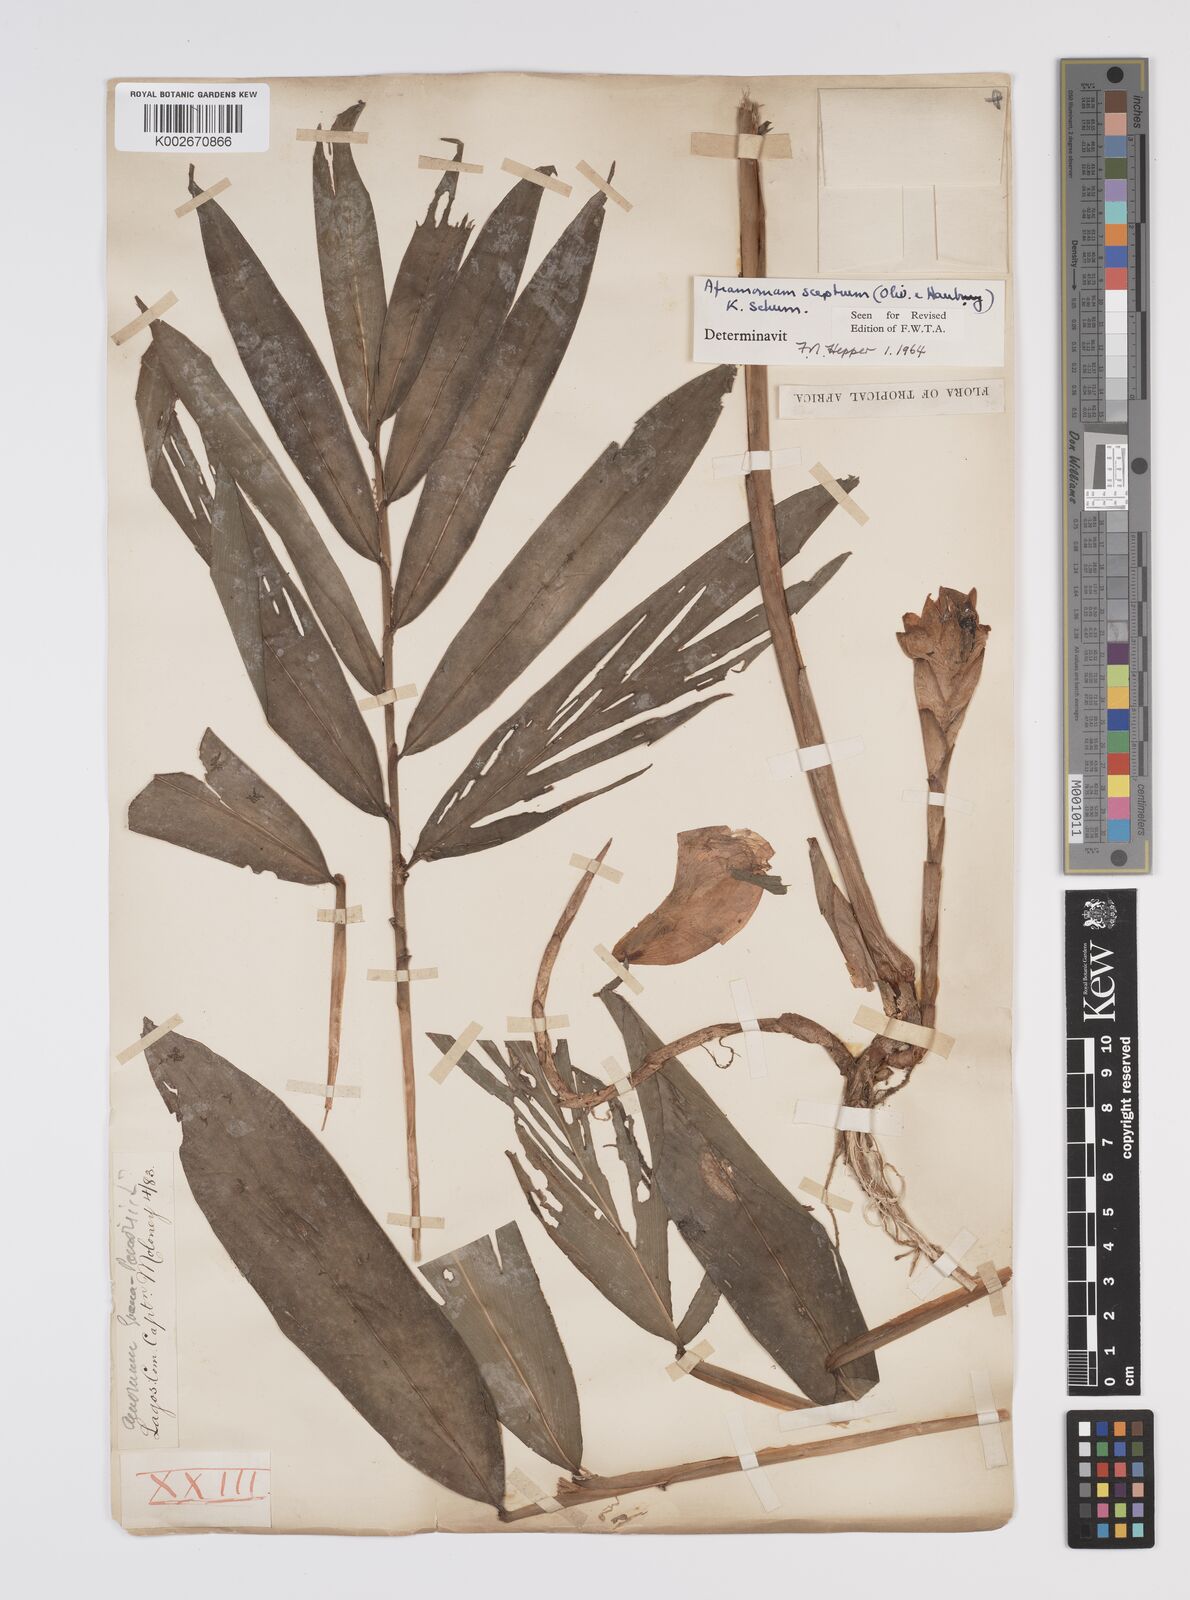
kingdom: Plantae
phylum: Tracheophyta
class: Liliopsida
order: Zingiberales
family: Zingiberaceae
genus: Aframomum
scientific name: Aframomum cereum
